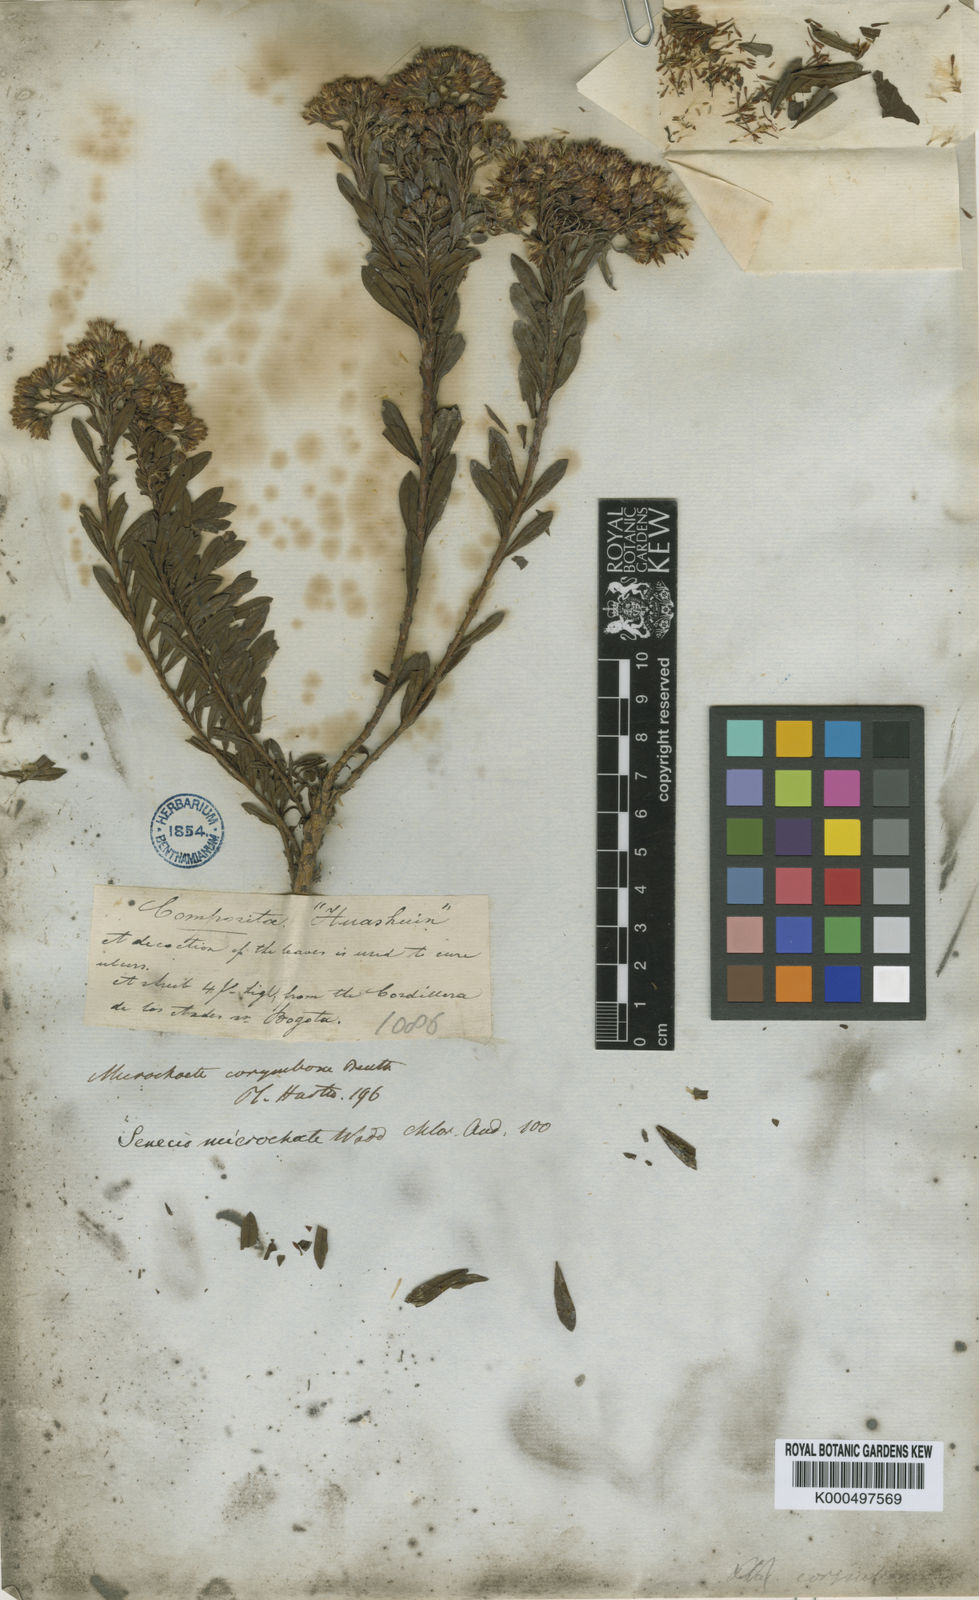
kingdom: Plantae
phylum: Tracheophyta
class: Magnoliopsida
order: Asterales
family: Asteraceae
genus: Monticalia
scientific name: Monticalia corymbosa
